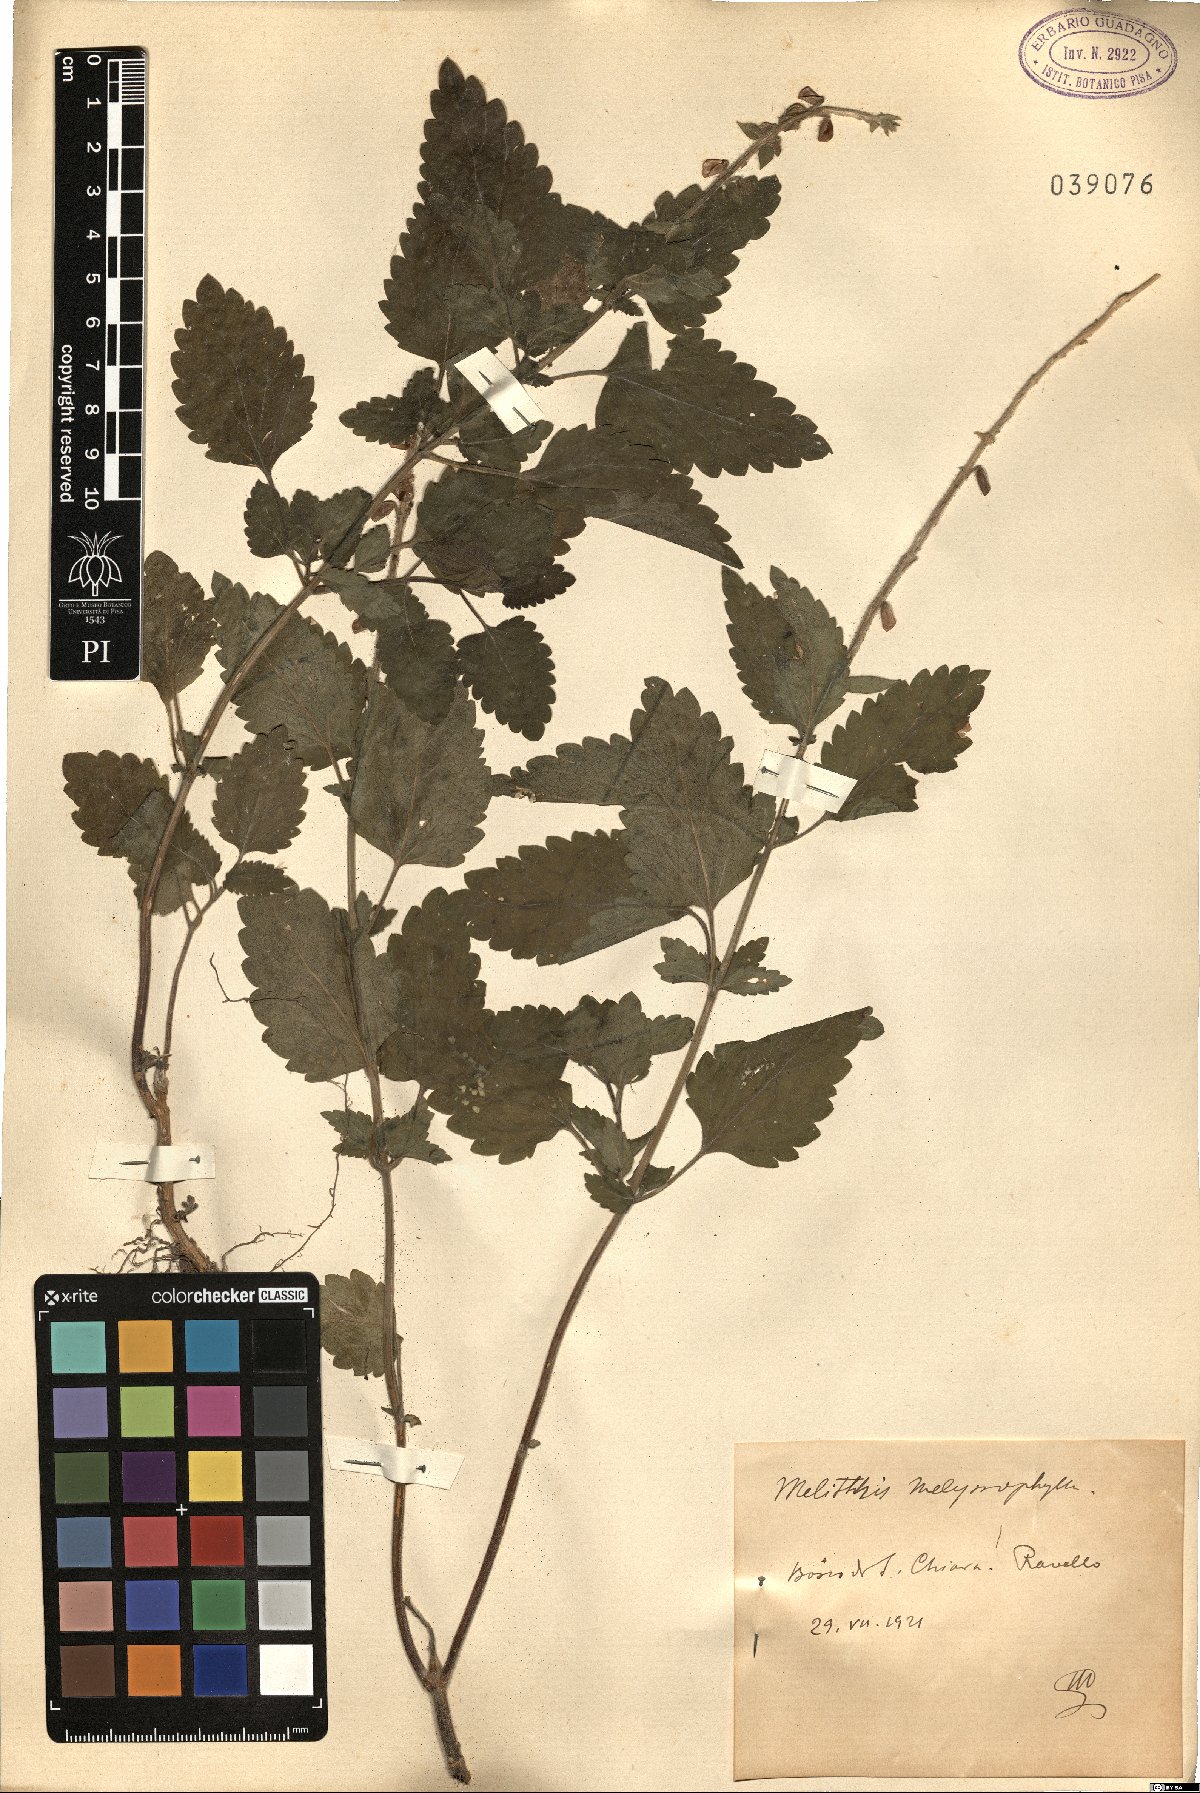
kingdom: Plantae
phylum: Tracheophyta
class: Magnoliopsida
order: Lamiales
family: Lamiaceae
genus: Melittis
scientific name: Melittis melissophyllum
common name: Bastard balm
